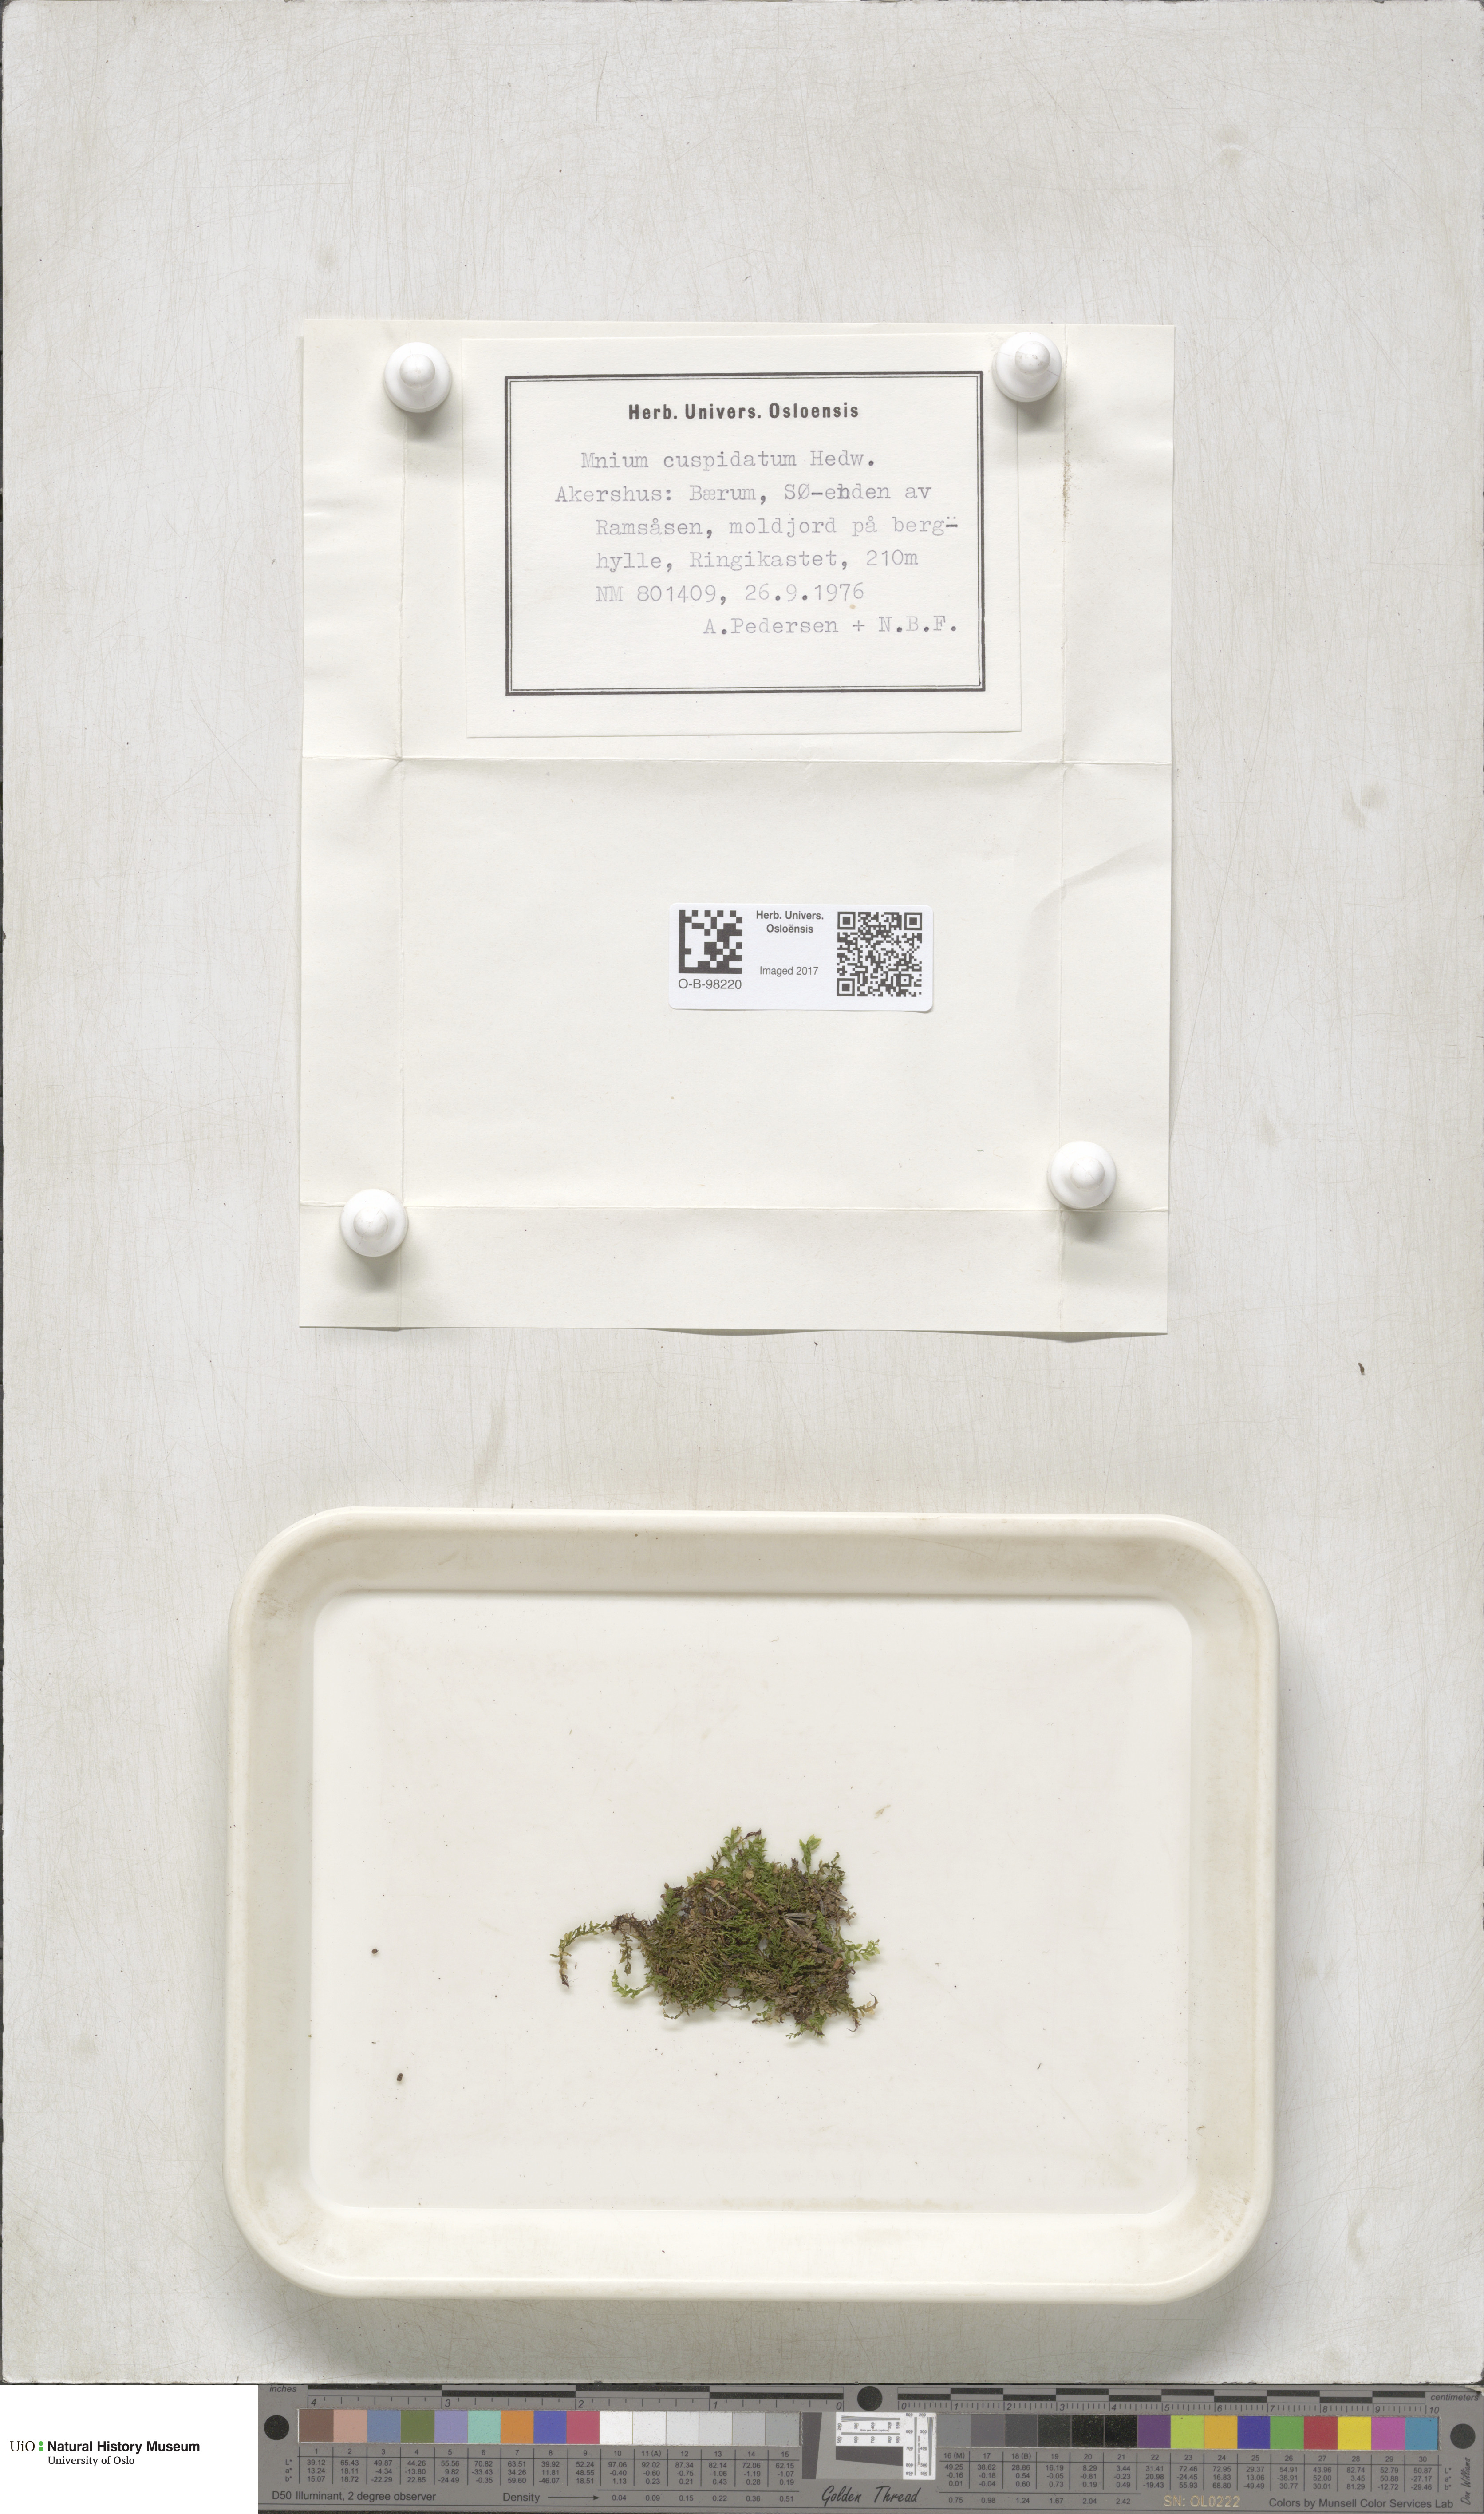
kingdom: Plantae
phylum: Bryophyta
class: Bryopsida
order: Bryales
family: Mniaceae
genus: Plagiomnium
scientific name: Plagiomnium cuspidatum
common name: Woodsy leafy moss
